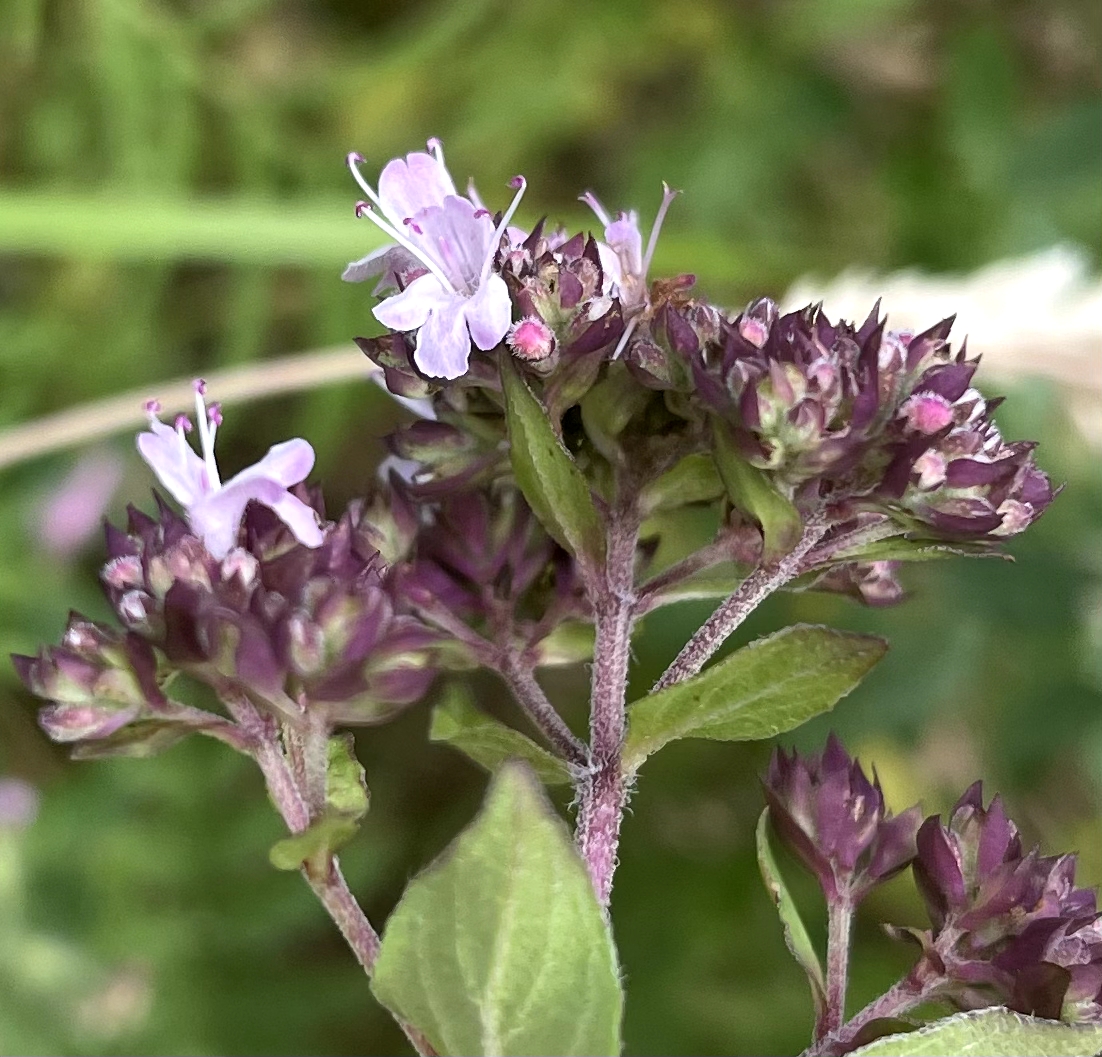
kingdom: Plantae
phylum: Tracheophyta
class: Magnoliopsida
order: Lamiales
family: Lamiaceae
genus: Origanum
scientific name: Origanum vulgare
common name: Merian
